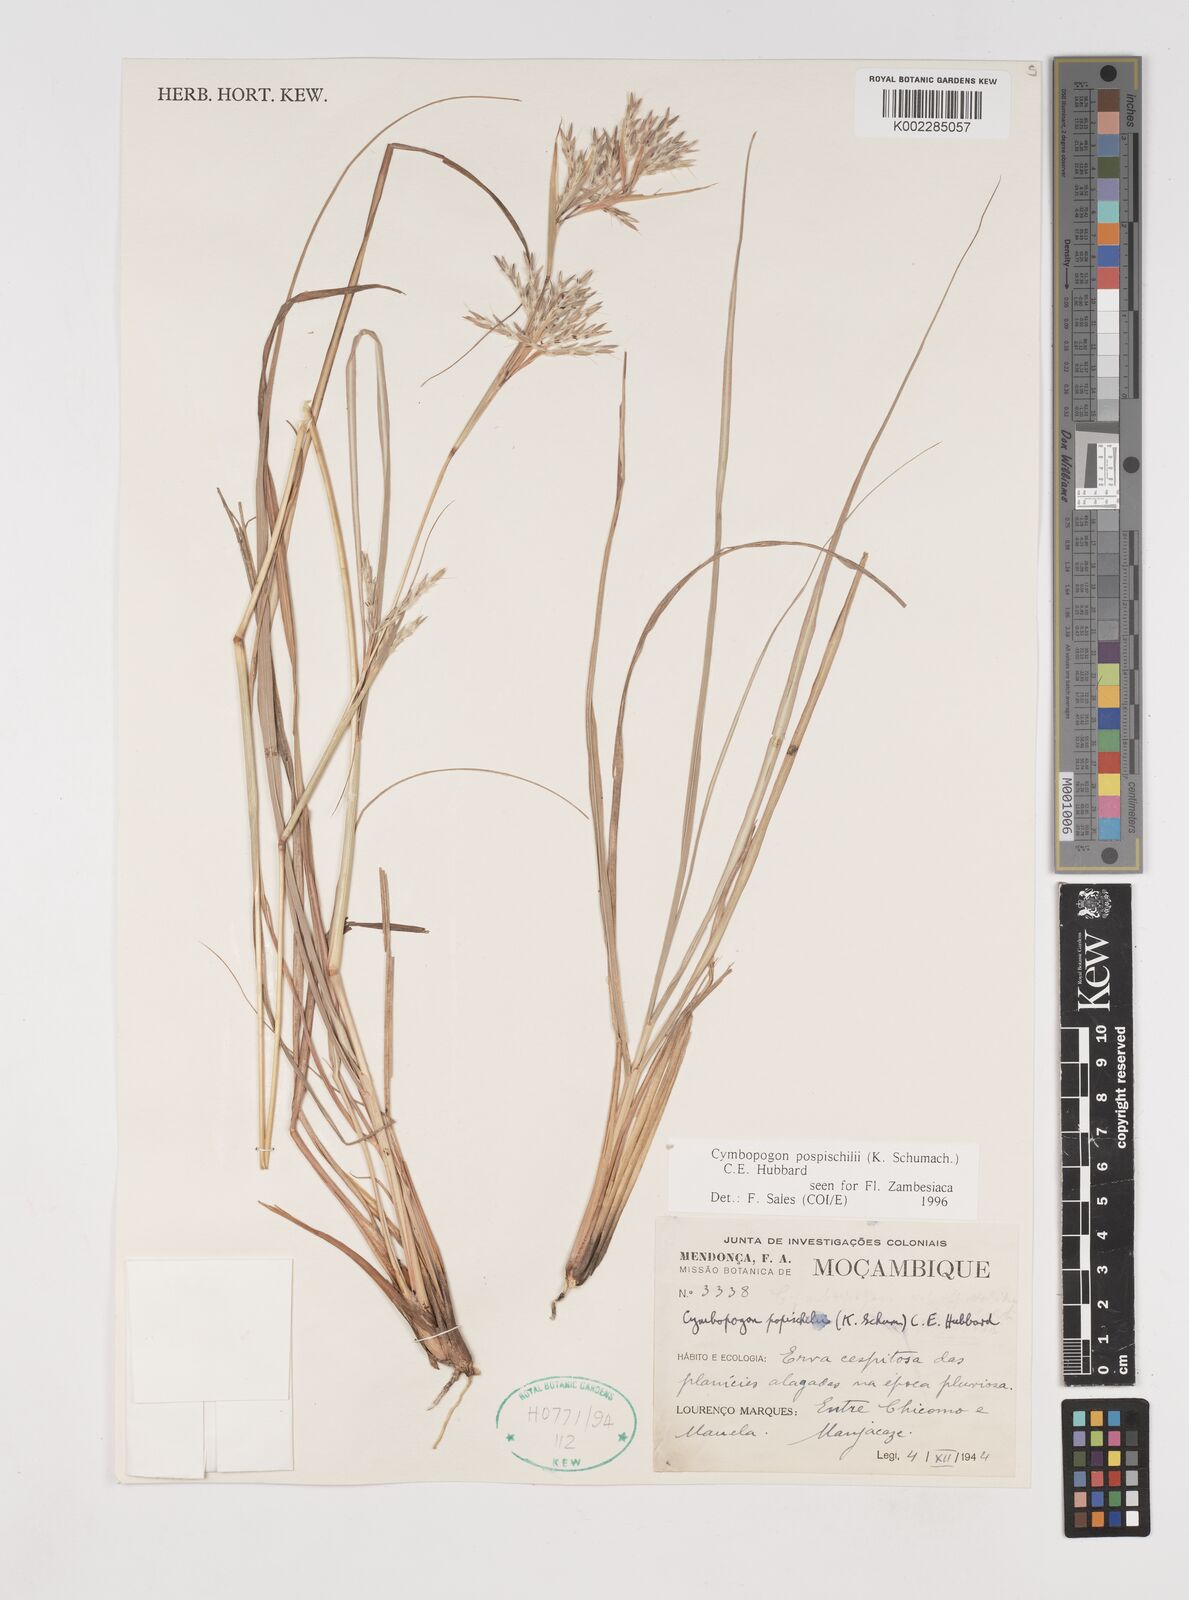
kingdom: Plantae
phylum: Tracheophyta
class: Liliopsida
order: Poales
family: Poaceae
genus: Cymbopogon
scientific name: Cymbopogon pospischilii
